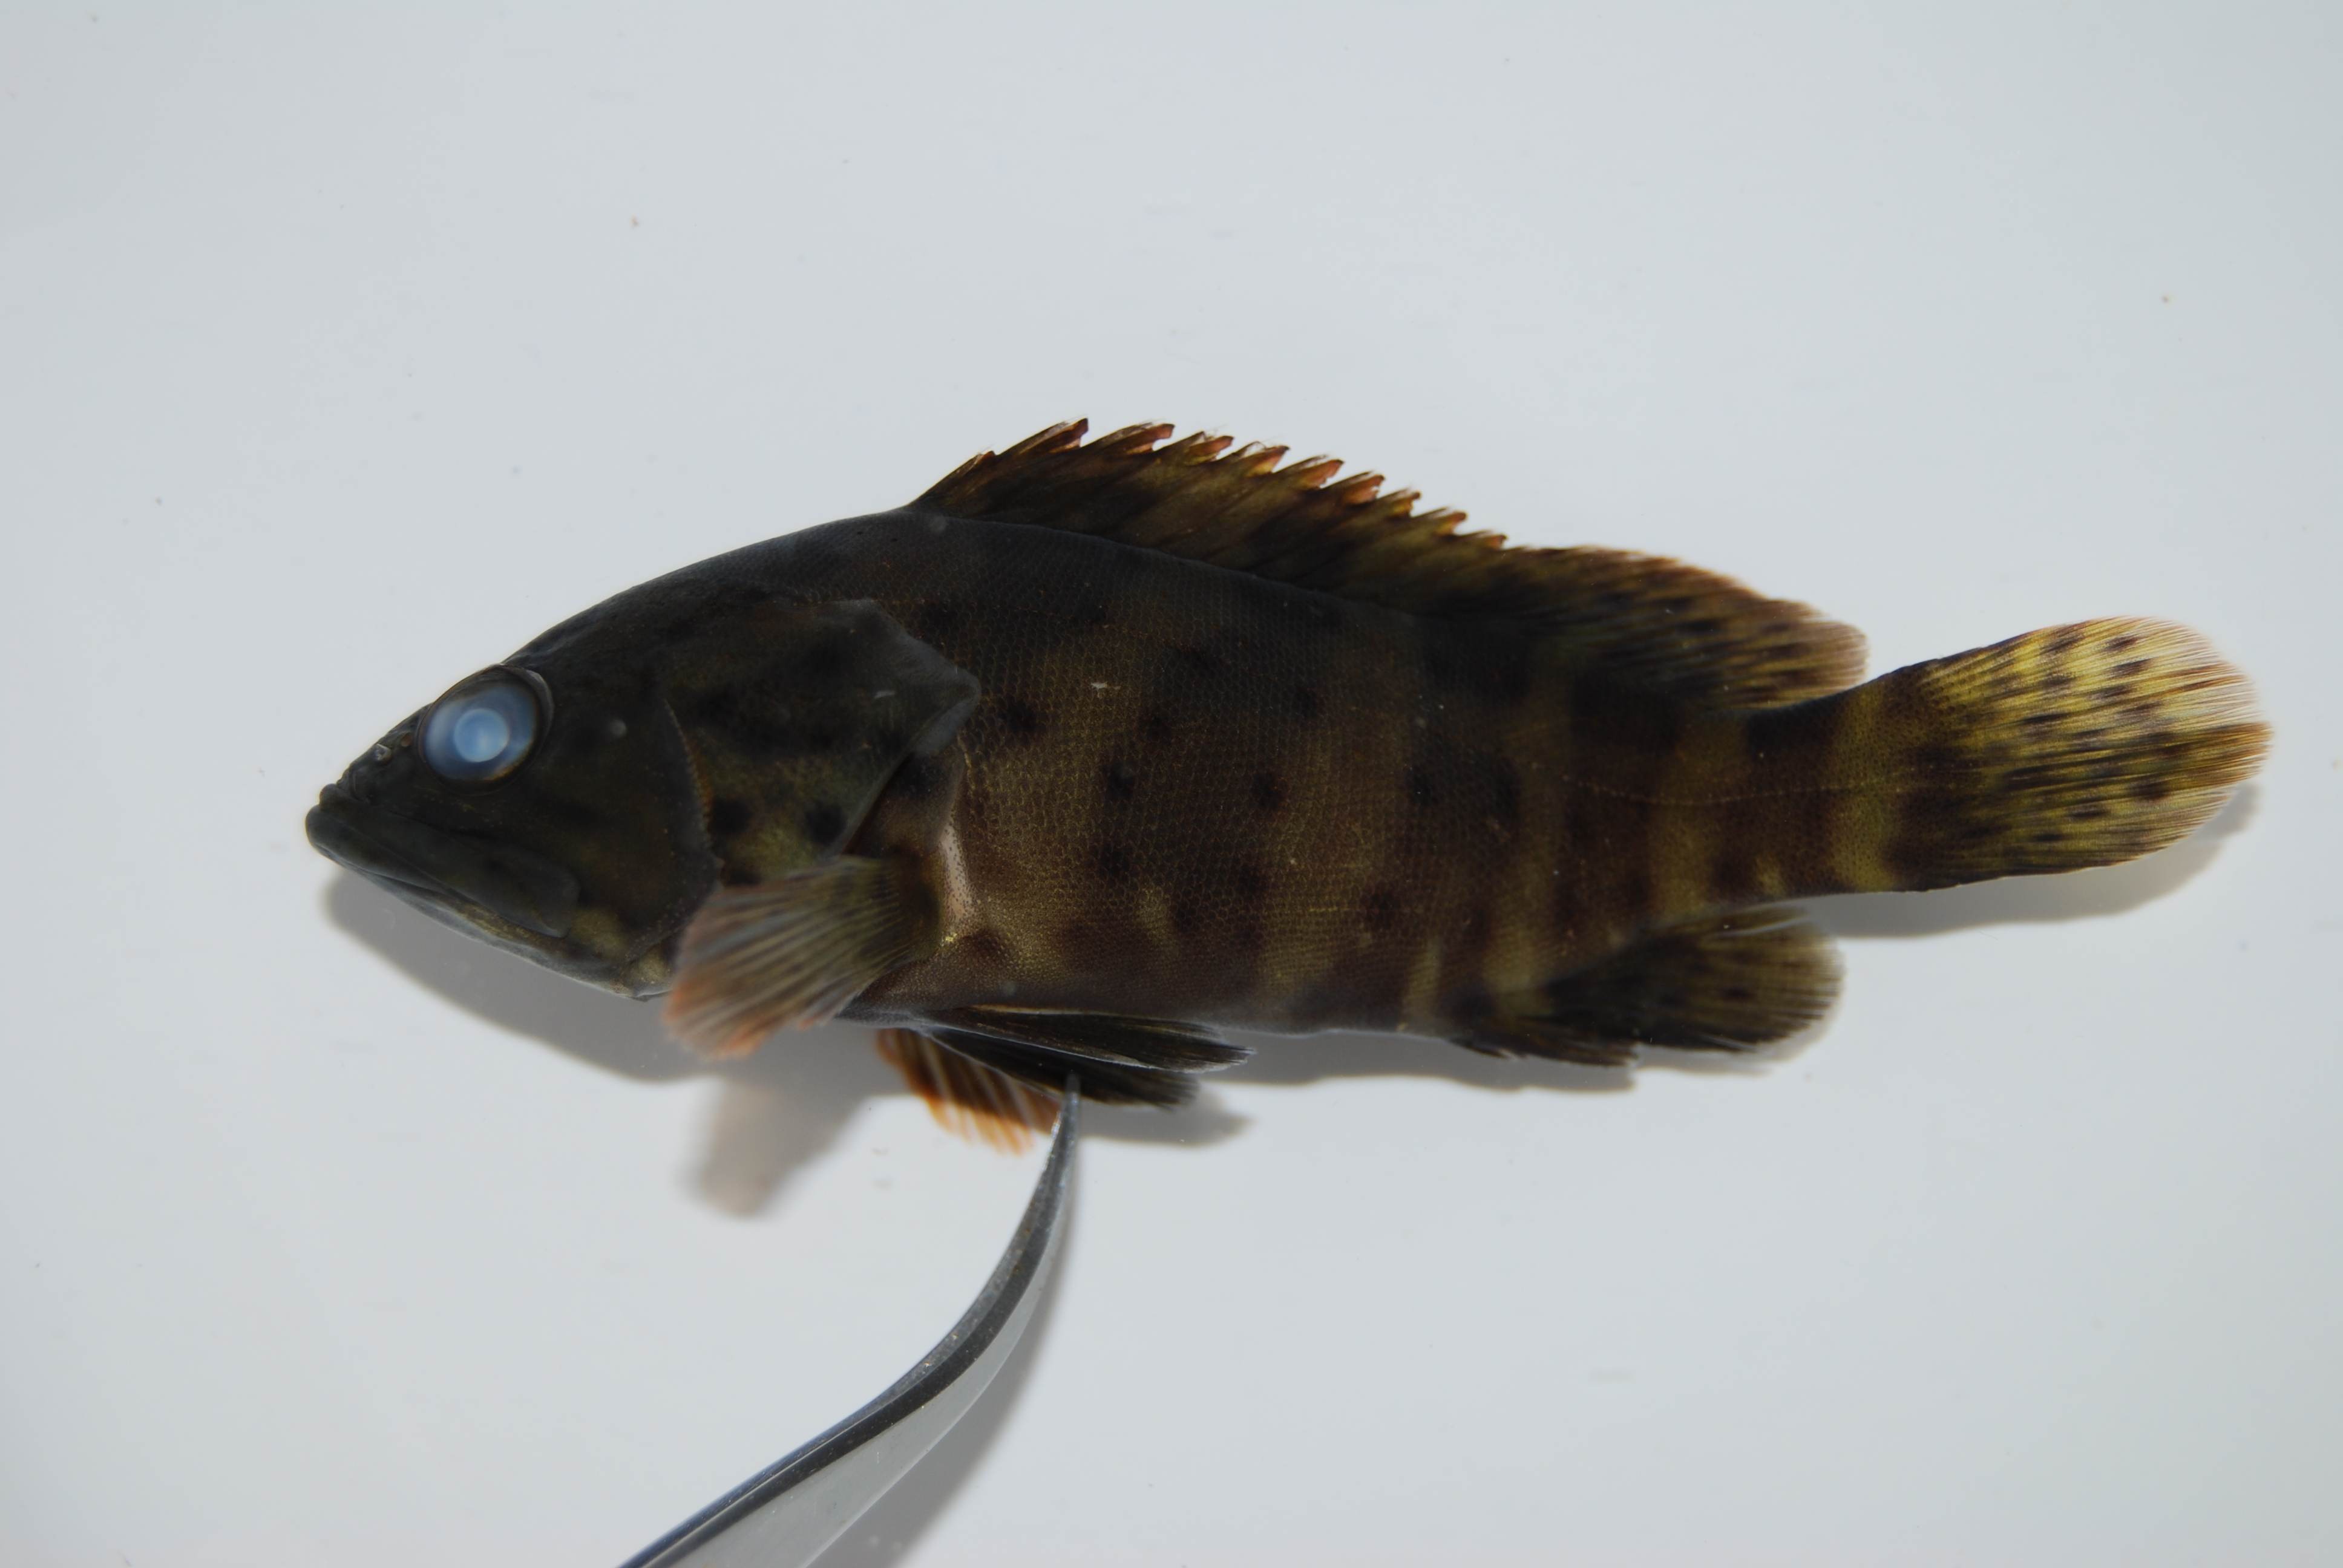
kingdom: Animalia
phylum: Chordata
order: Perciformes
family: Serranidae
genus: Epinephelus
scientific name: Epinephelus coioides
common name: Orange-spotted grouper
